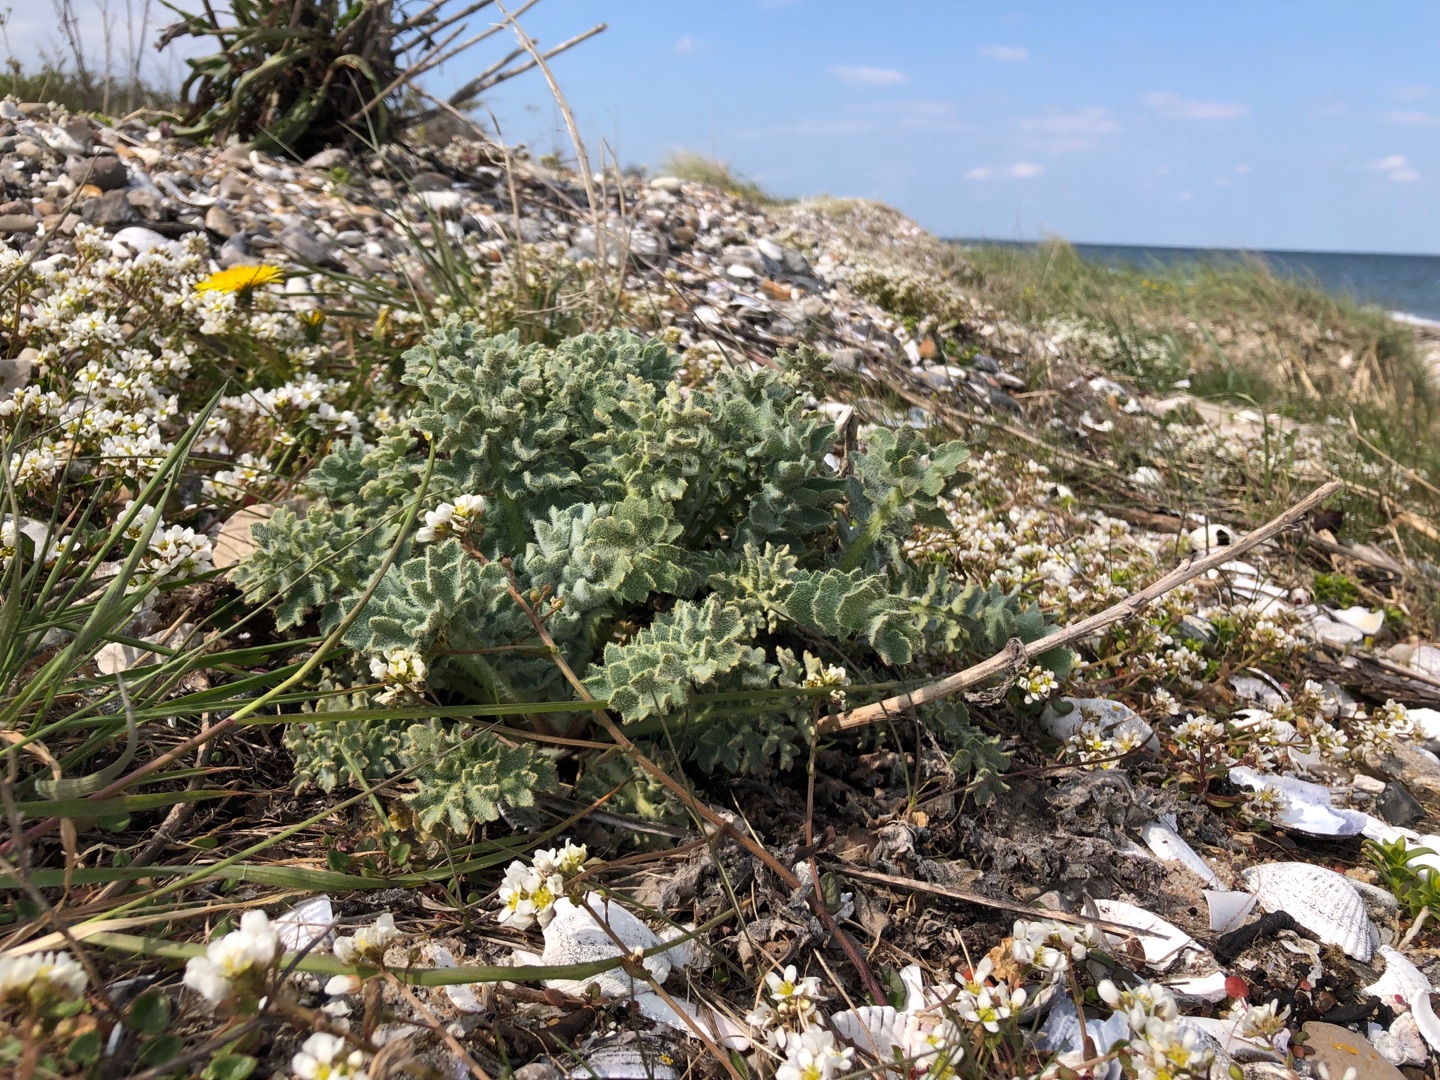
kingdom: Plantae
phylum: Tracheophyta
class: Magnoliopsida
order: Ranunculales
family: Papaveraceae
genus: Glaucium
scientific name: Glaucium flavum
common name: Hornskulpe
